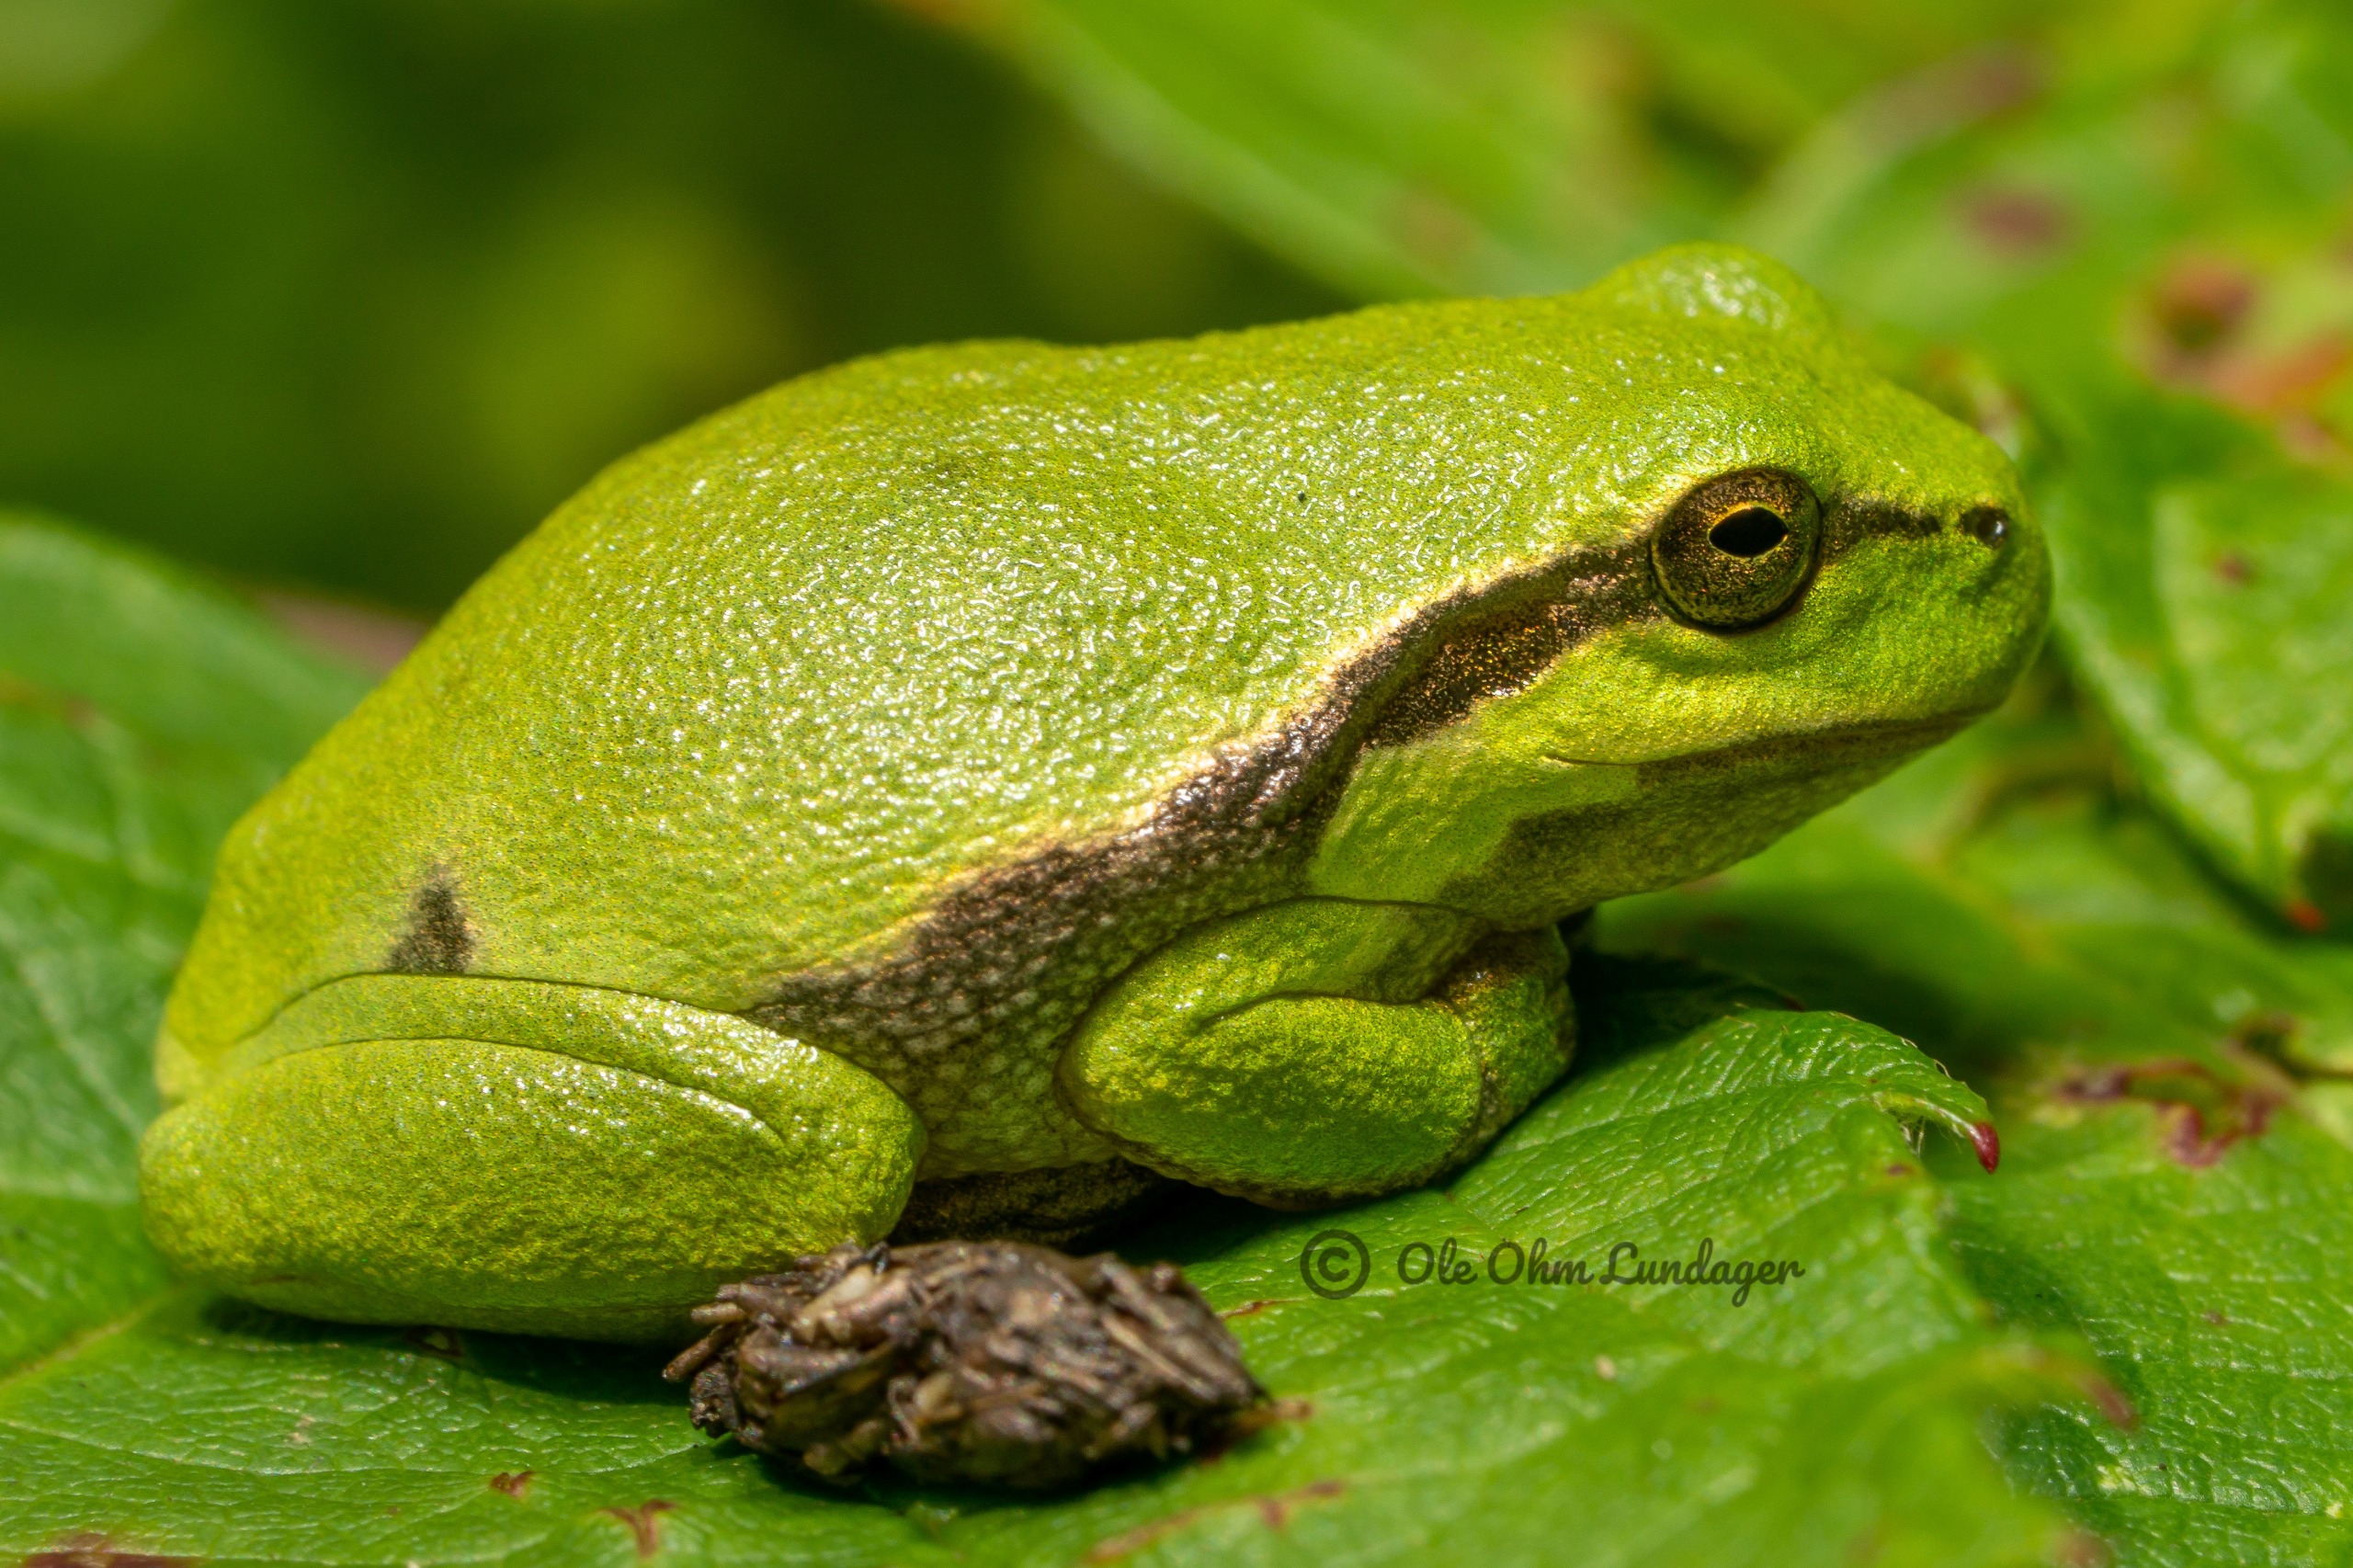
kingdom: Animalia
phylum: Chordata
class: Amphibia
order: Anura
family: Hylidae
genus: Hyla
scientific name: Hyla arborea
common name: Løvfrø
